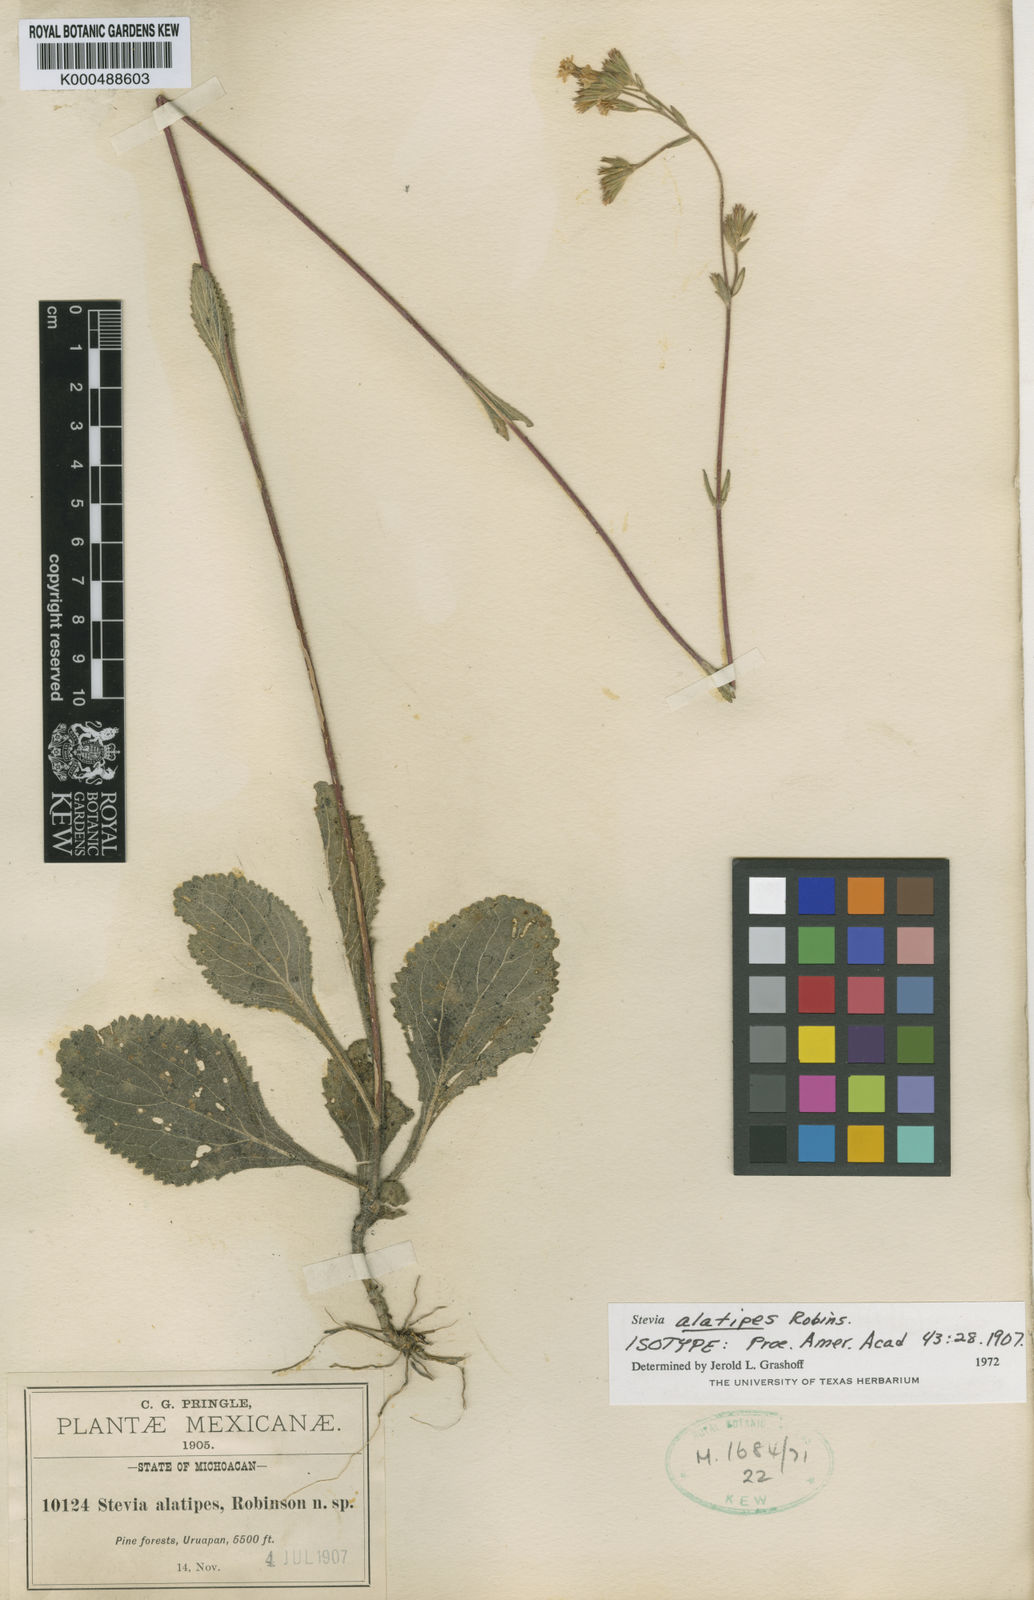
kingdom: Plantae
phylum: Tracheophyta
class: Magnoliopsida
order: Asterales
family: Asteraceae
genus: Stevia
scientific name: Stevia alatipes
